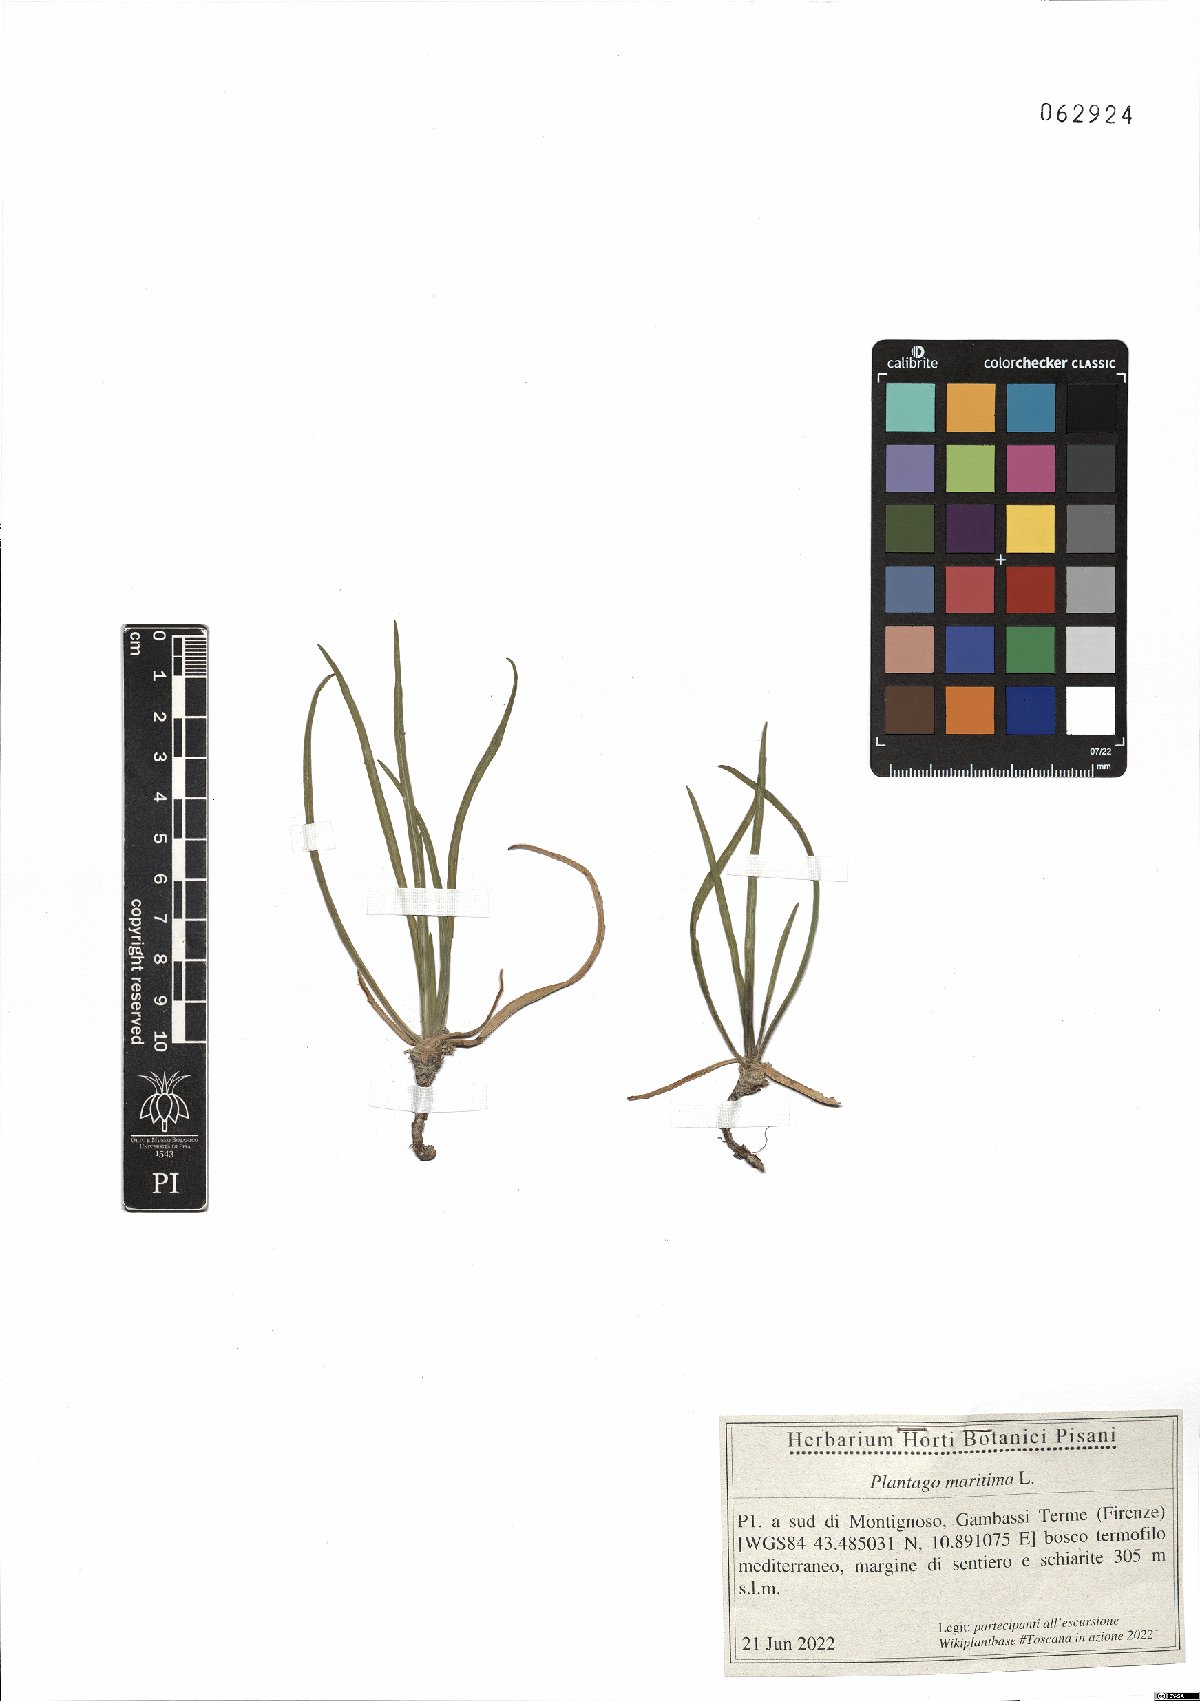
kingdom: Plantae
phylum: Tracheophyta
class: Magnoliopsida
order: Lamiales
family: Plantaginaceae
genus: Plantago
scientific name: Plantago maritima
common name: Sea plantain
